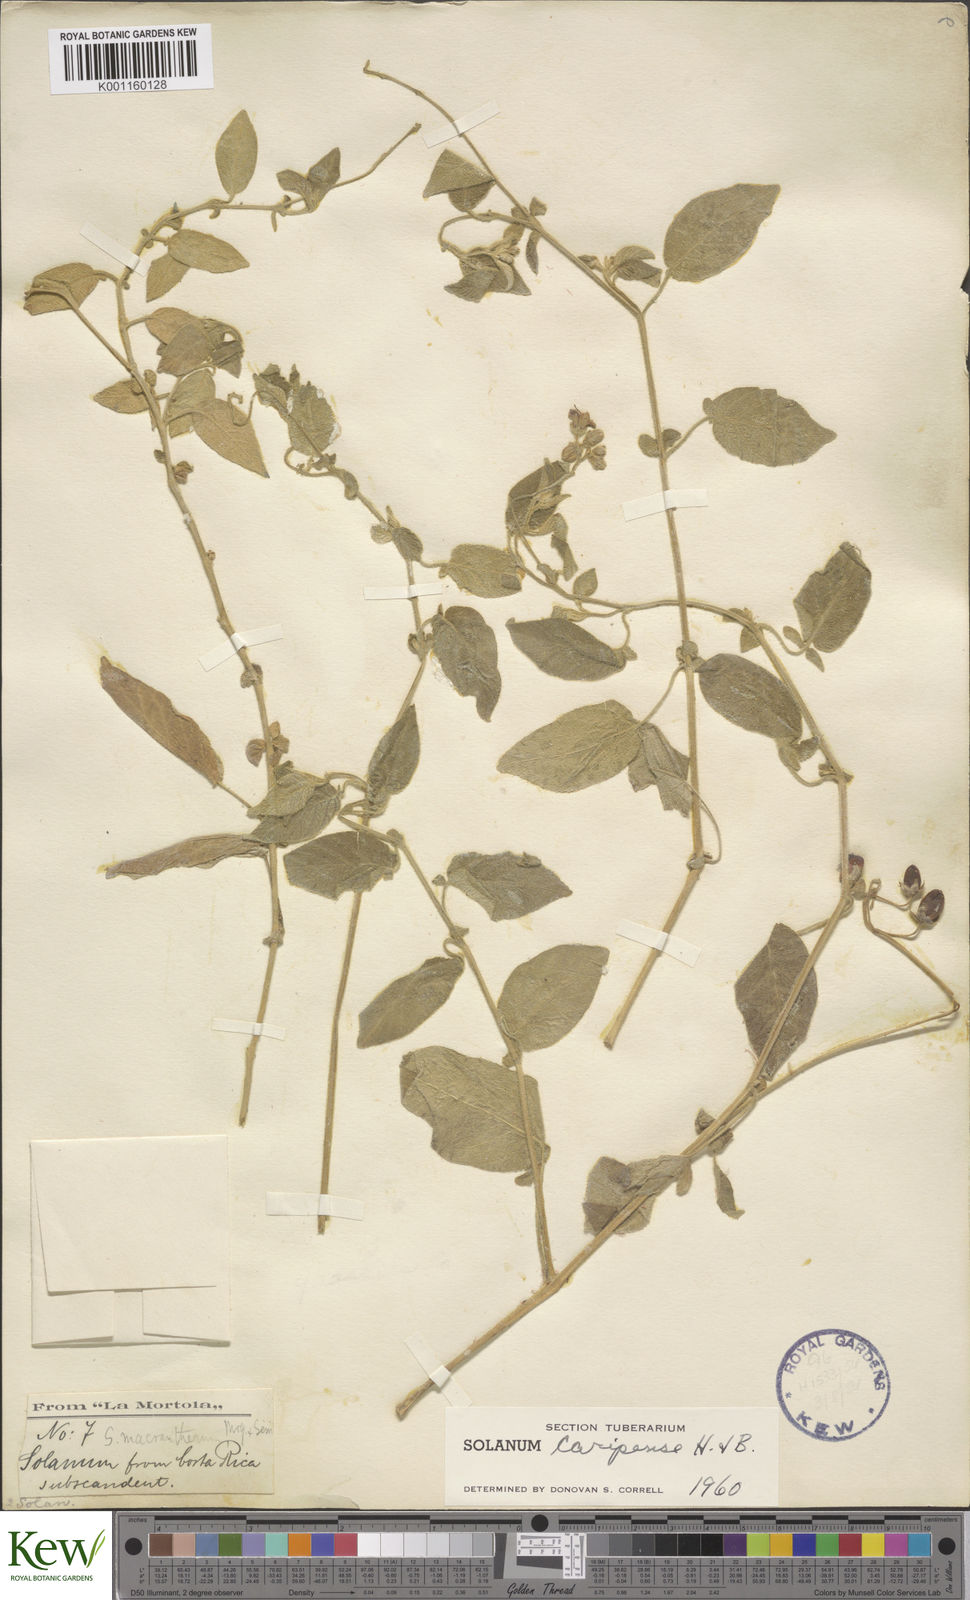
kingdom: Plantae
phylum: Tracheophyta
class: Magnoliopsida
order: Solanales
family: Solanaceae
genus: Solanum
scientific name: Solanum caripense
